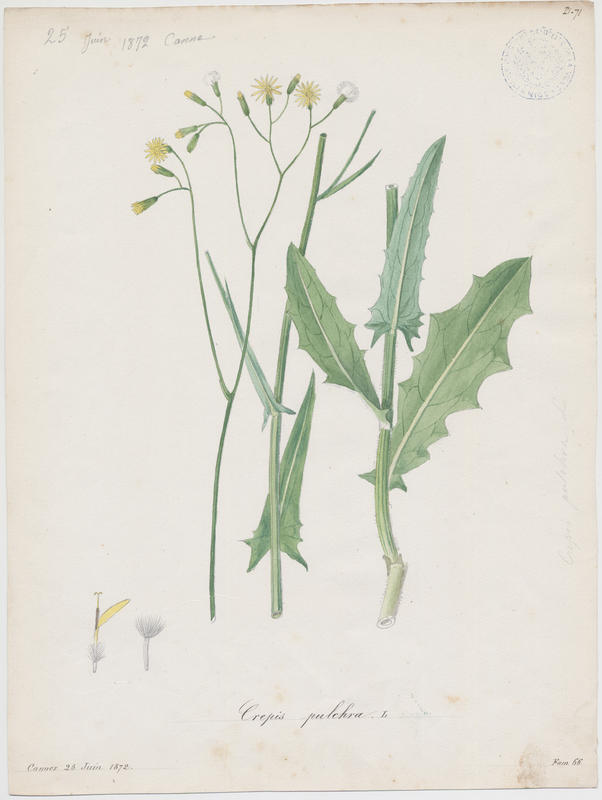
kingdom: Plantae
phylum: Tracheophyta
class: Magnoliopsida
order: Asterales
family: Asteraceae
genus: Crepis
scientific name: Crepis pulchra
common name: Hawk's-beard
